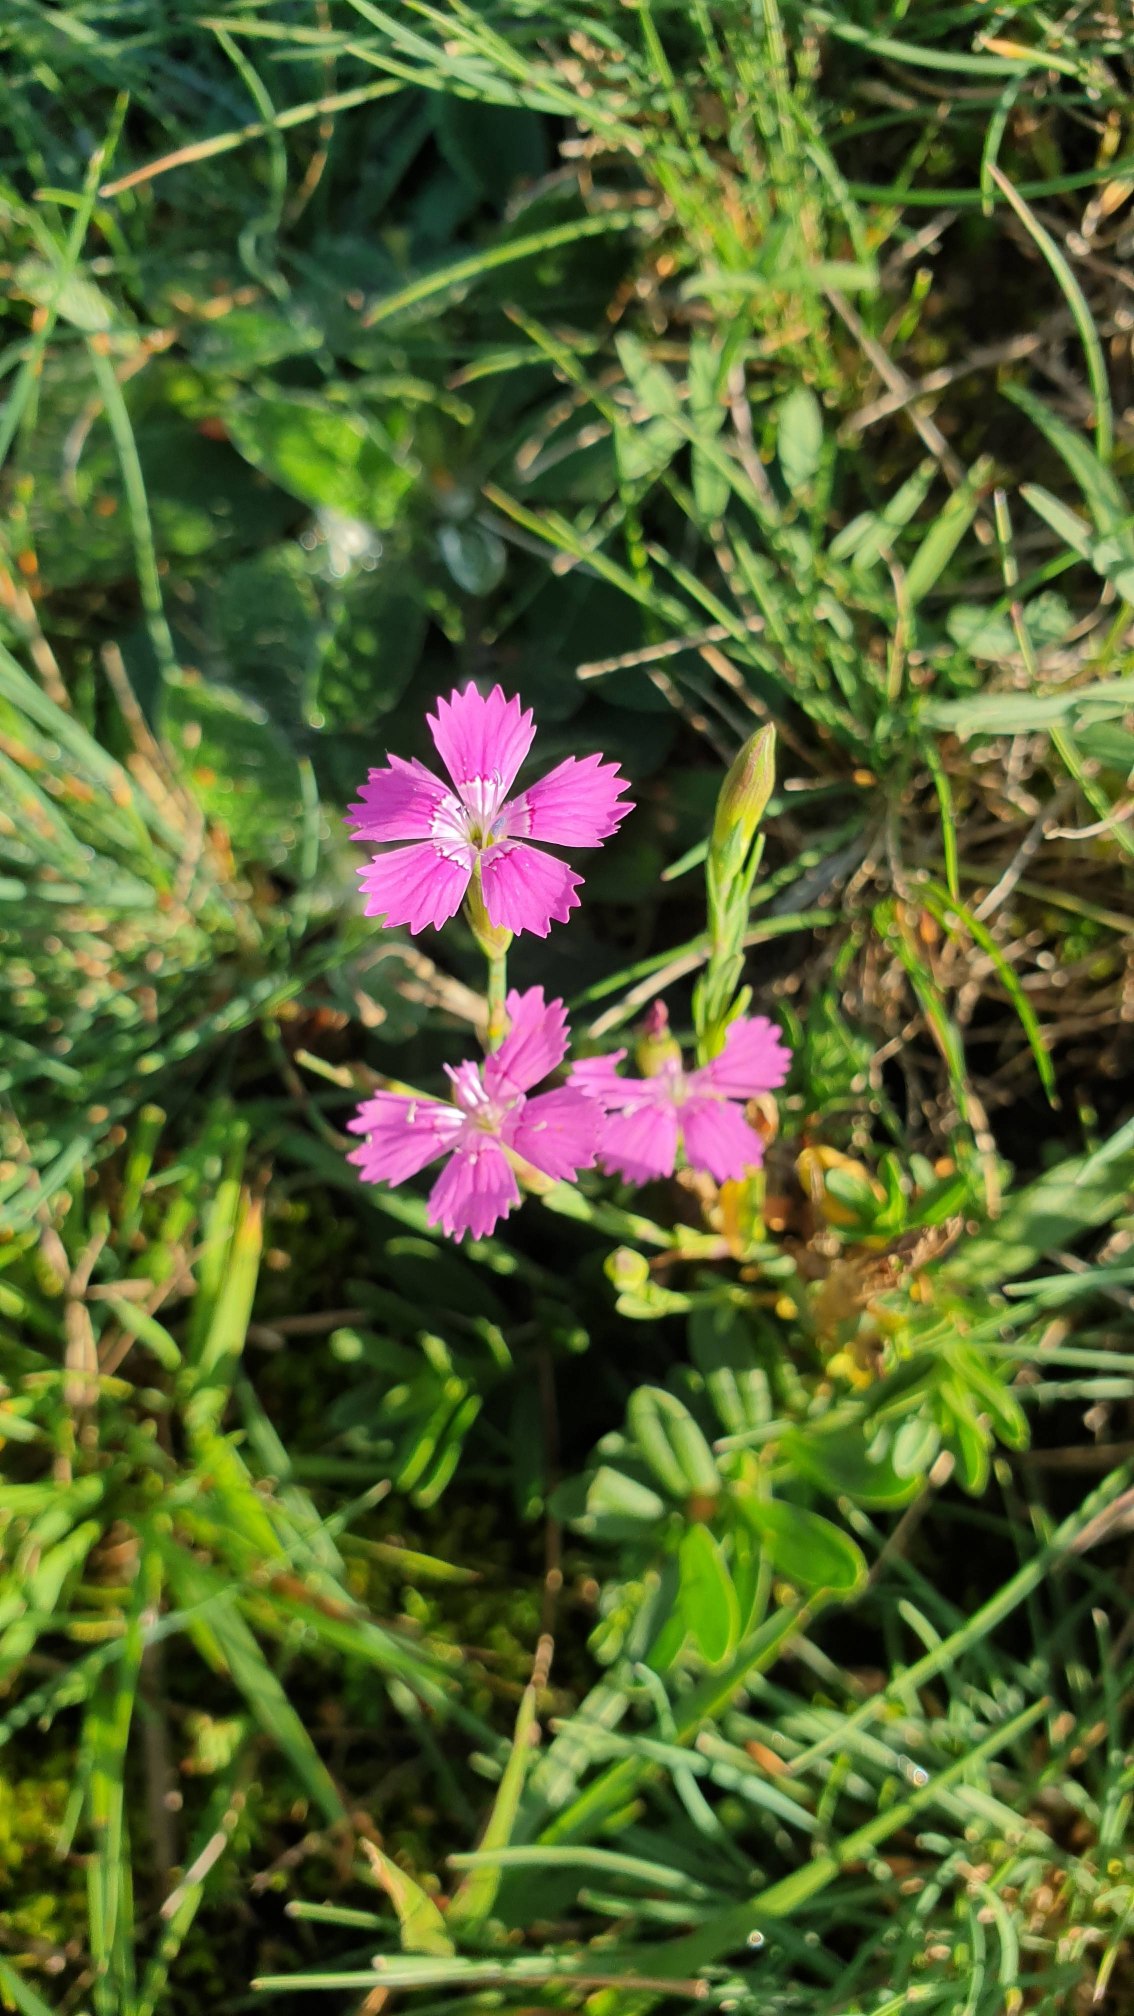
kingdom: Plantae
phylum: Tracheophyta
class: Magnoliopsida
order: Caryophyllales
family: Caryophyllaceae
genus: Dianthus
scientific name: Dianthus deltoides
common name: Bakke-nellike
